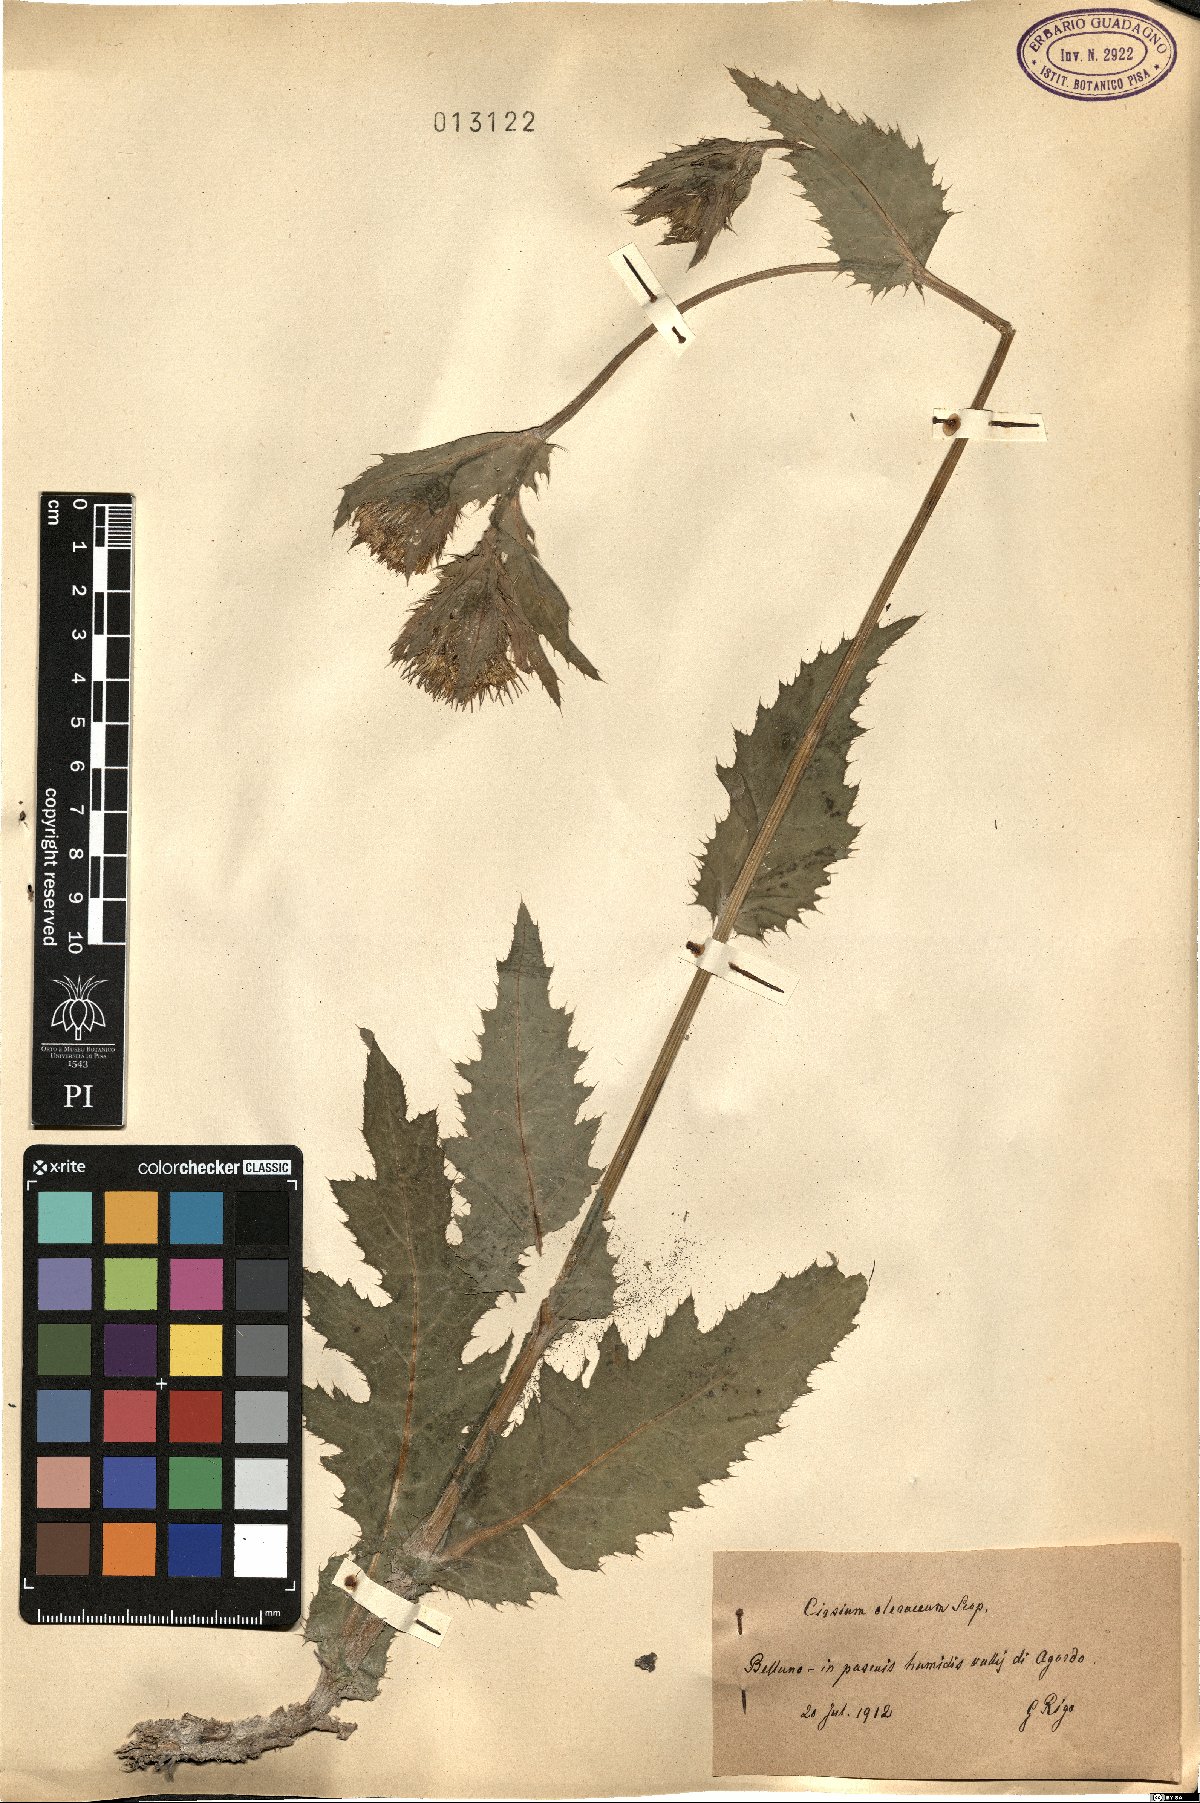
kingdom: Plantae
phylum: Tracheophyta
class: Magnoliopsida
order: Asterales
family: Asteraceae
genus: Cirsium
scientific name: Cirsium oleraceum
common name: Cabbage thistle
